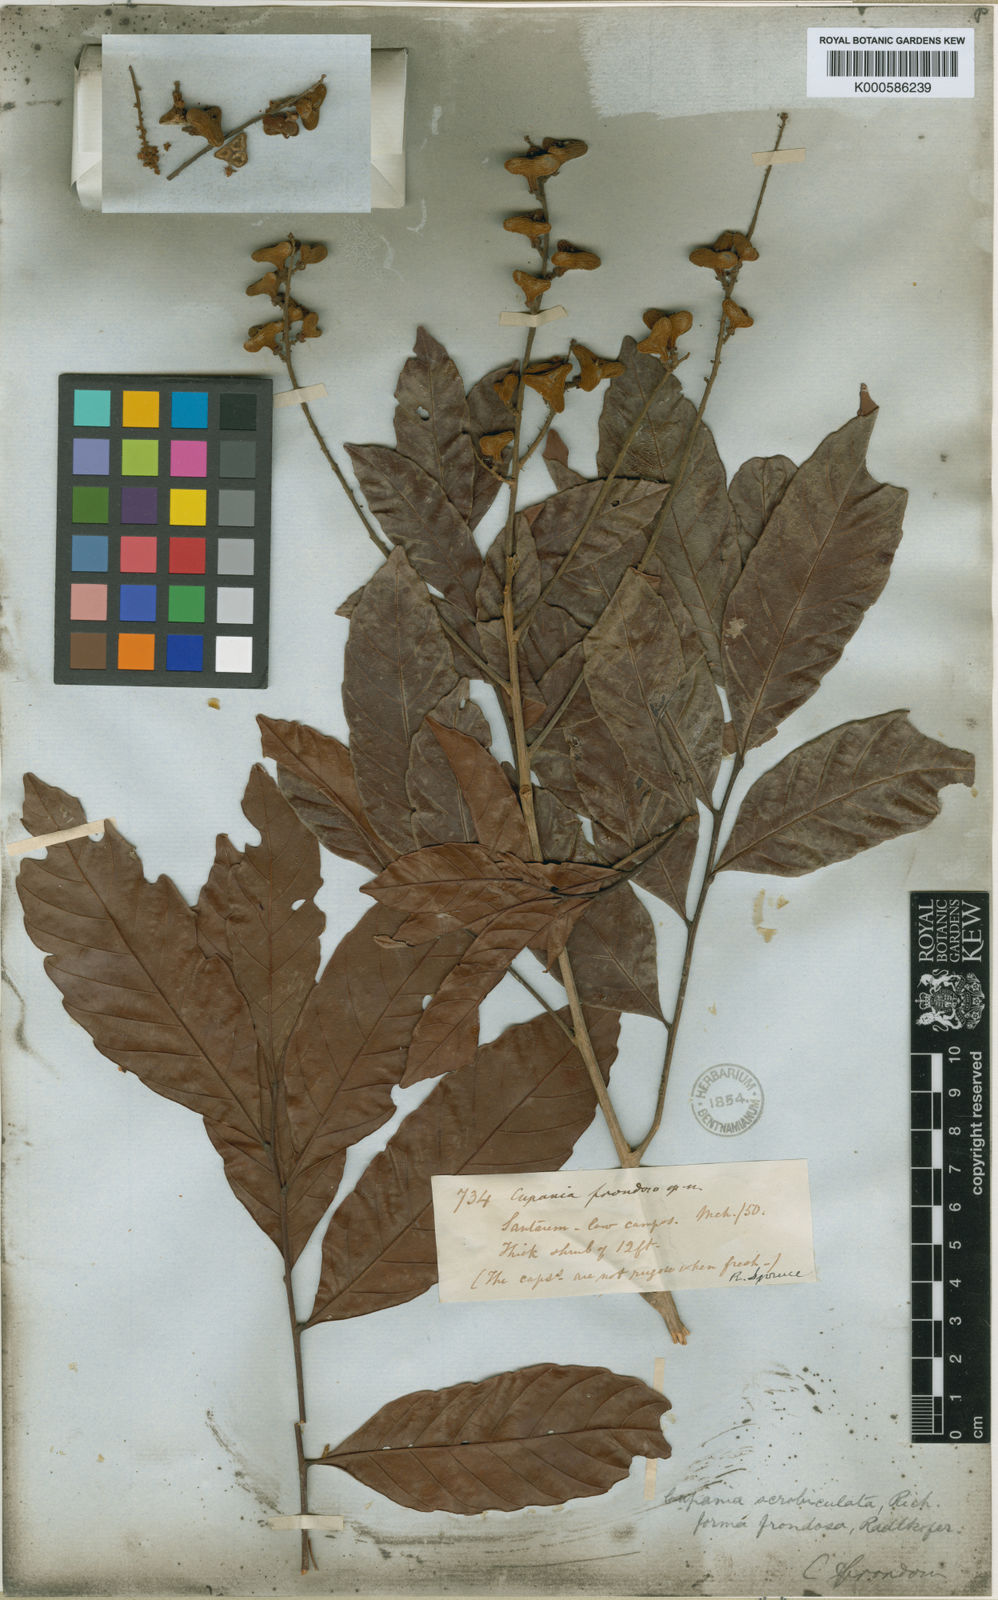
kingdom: Plantae
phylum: Tracheophyta
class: Magnoliopsida
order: Sapindales
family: Sapindaceae
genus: Cupania
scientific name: Cupania scrobiculata
